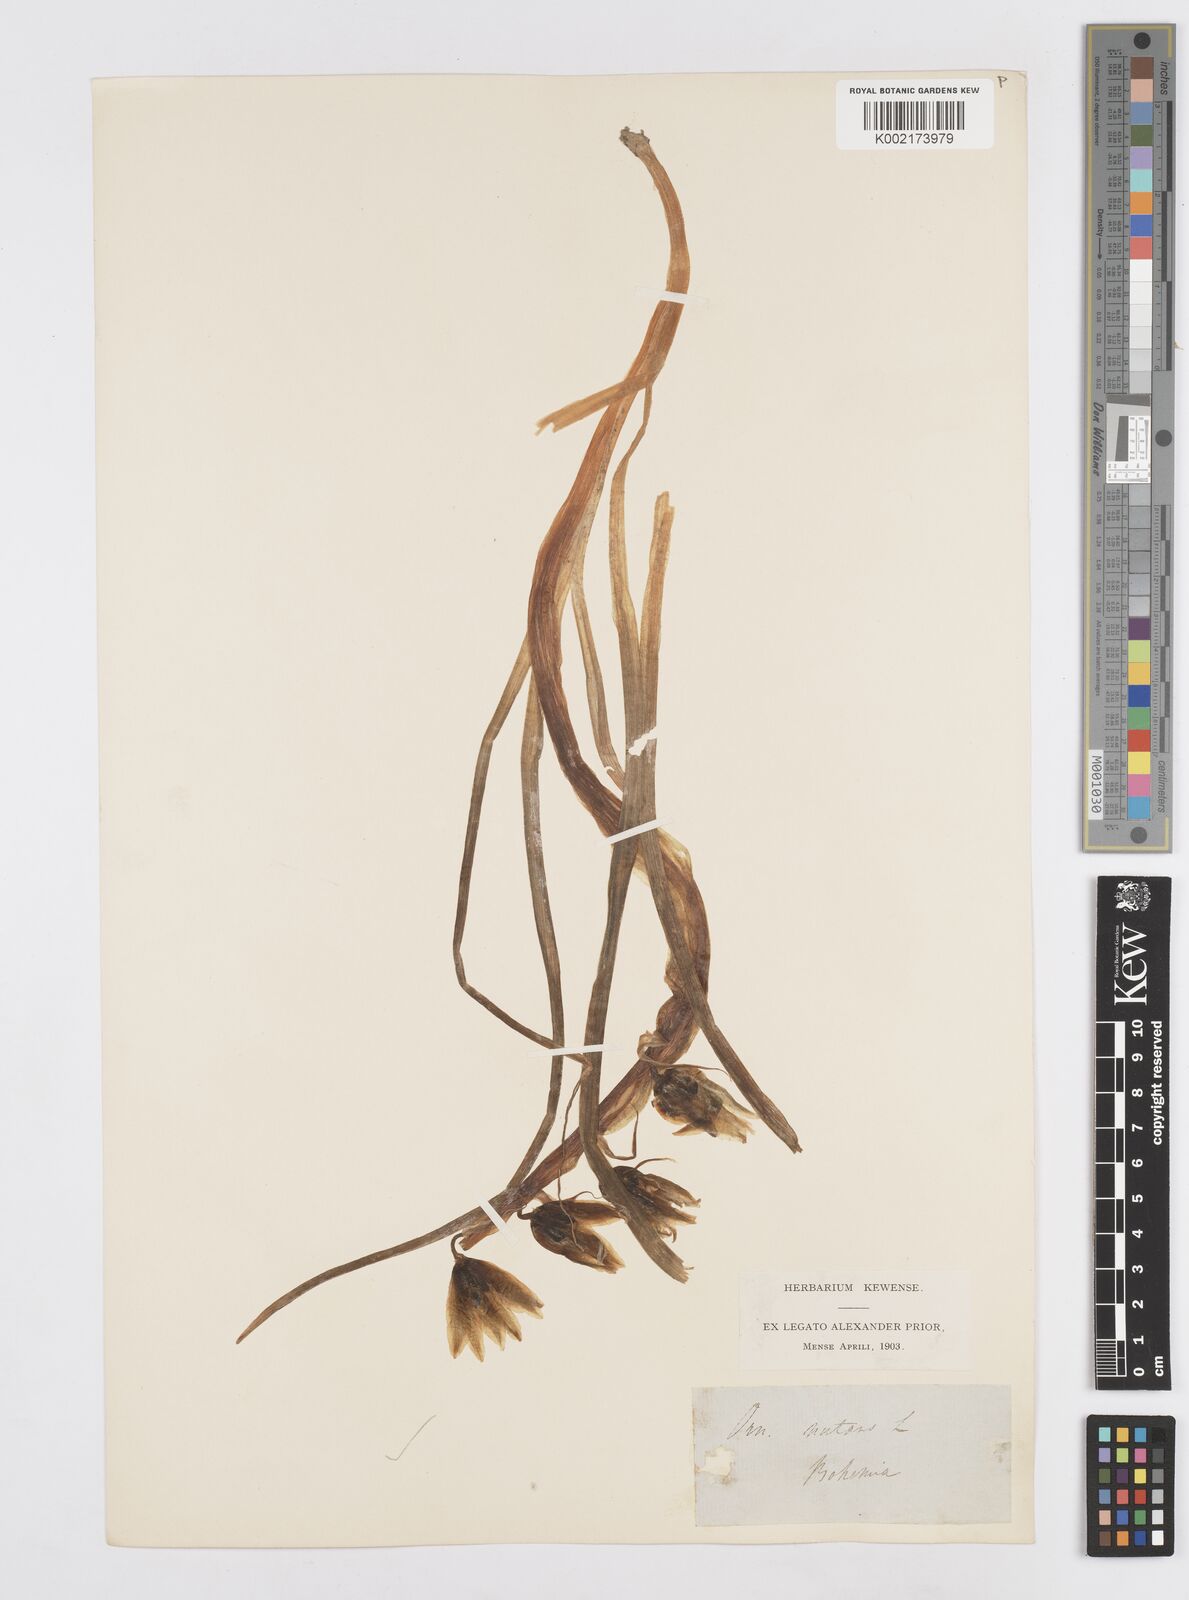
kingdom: Plantae
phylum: Tracheophyta
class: Liliopsida
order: Asparagales
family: Asparagaceae
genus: Ornithogalum
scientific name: Ornithogalum nutans
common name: Drooping star-of-bethlehem
